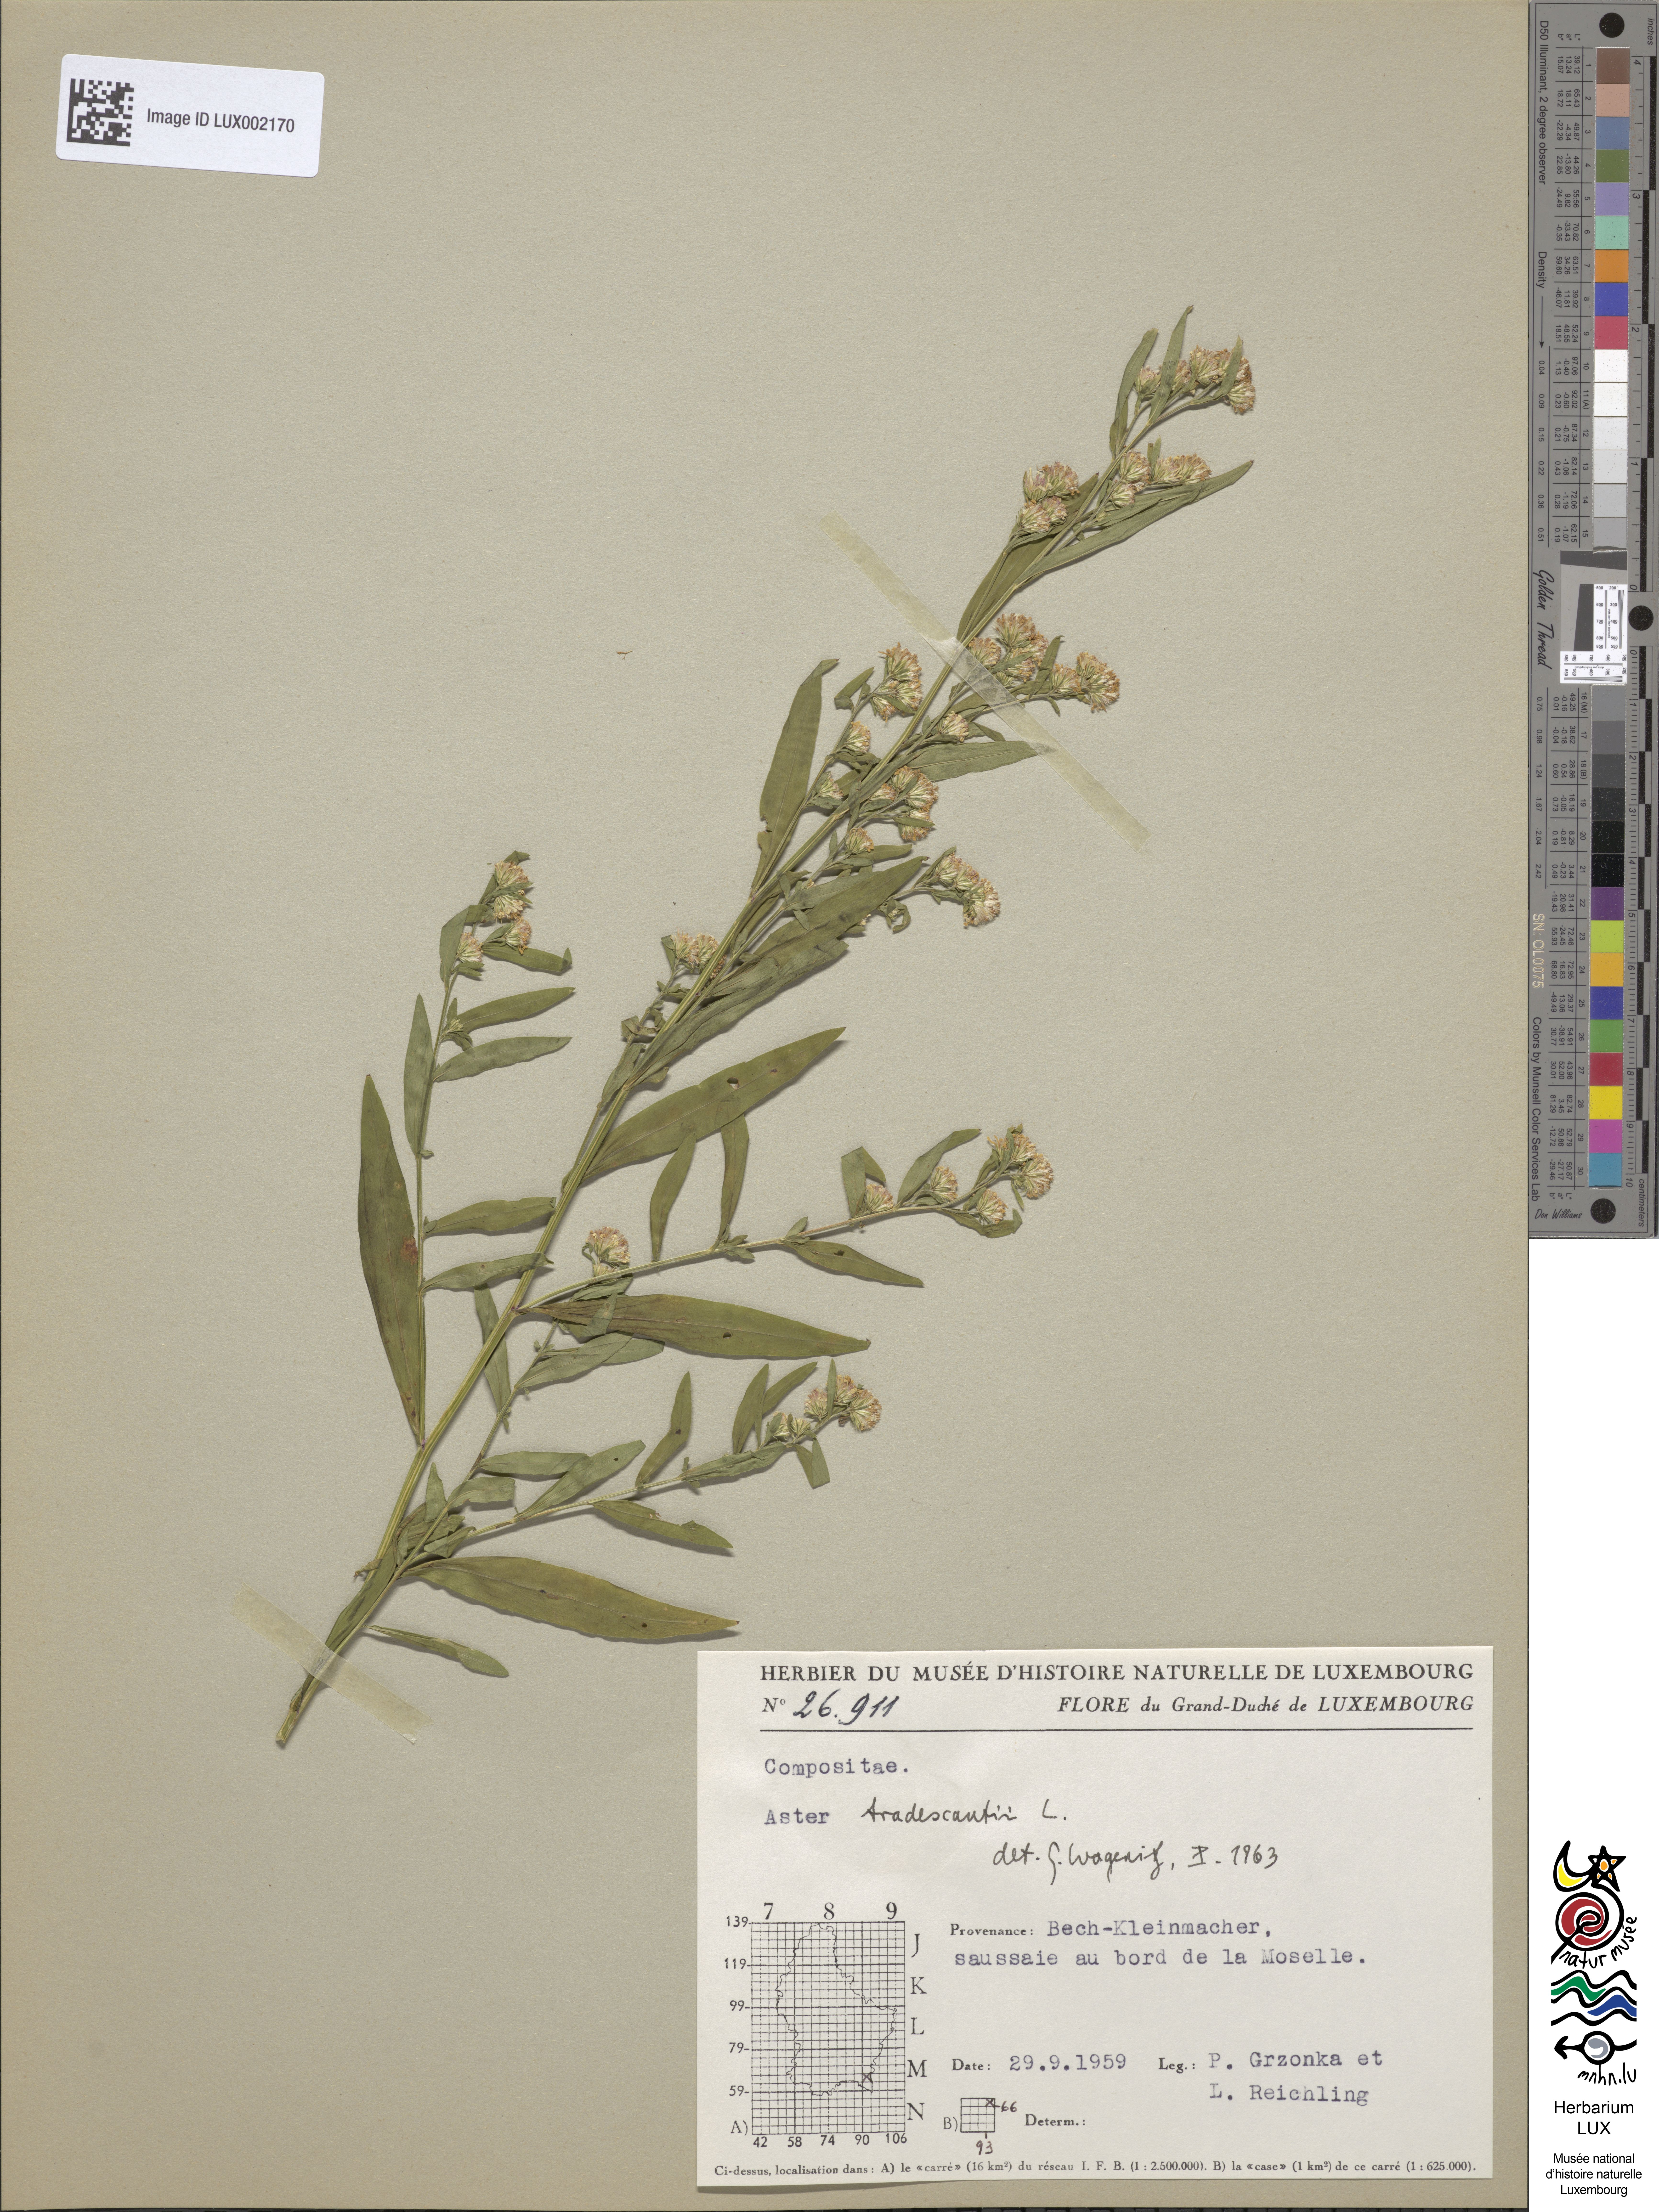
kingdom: Plantae
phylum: Tracheophyta
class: Magnoliopsida
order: Asterales
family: Asteraceae
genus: Symphyotrichum
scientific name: Symphyotrichum tradescantii
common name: Shore aster
